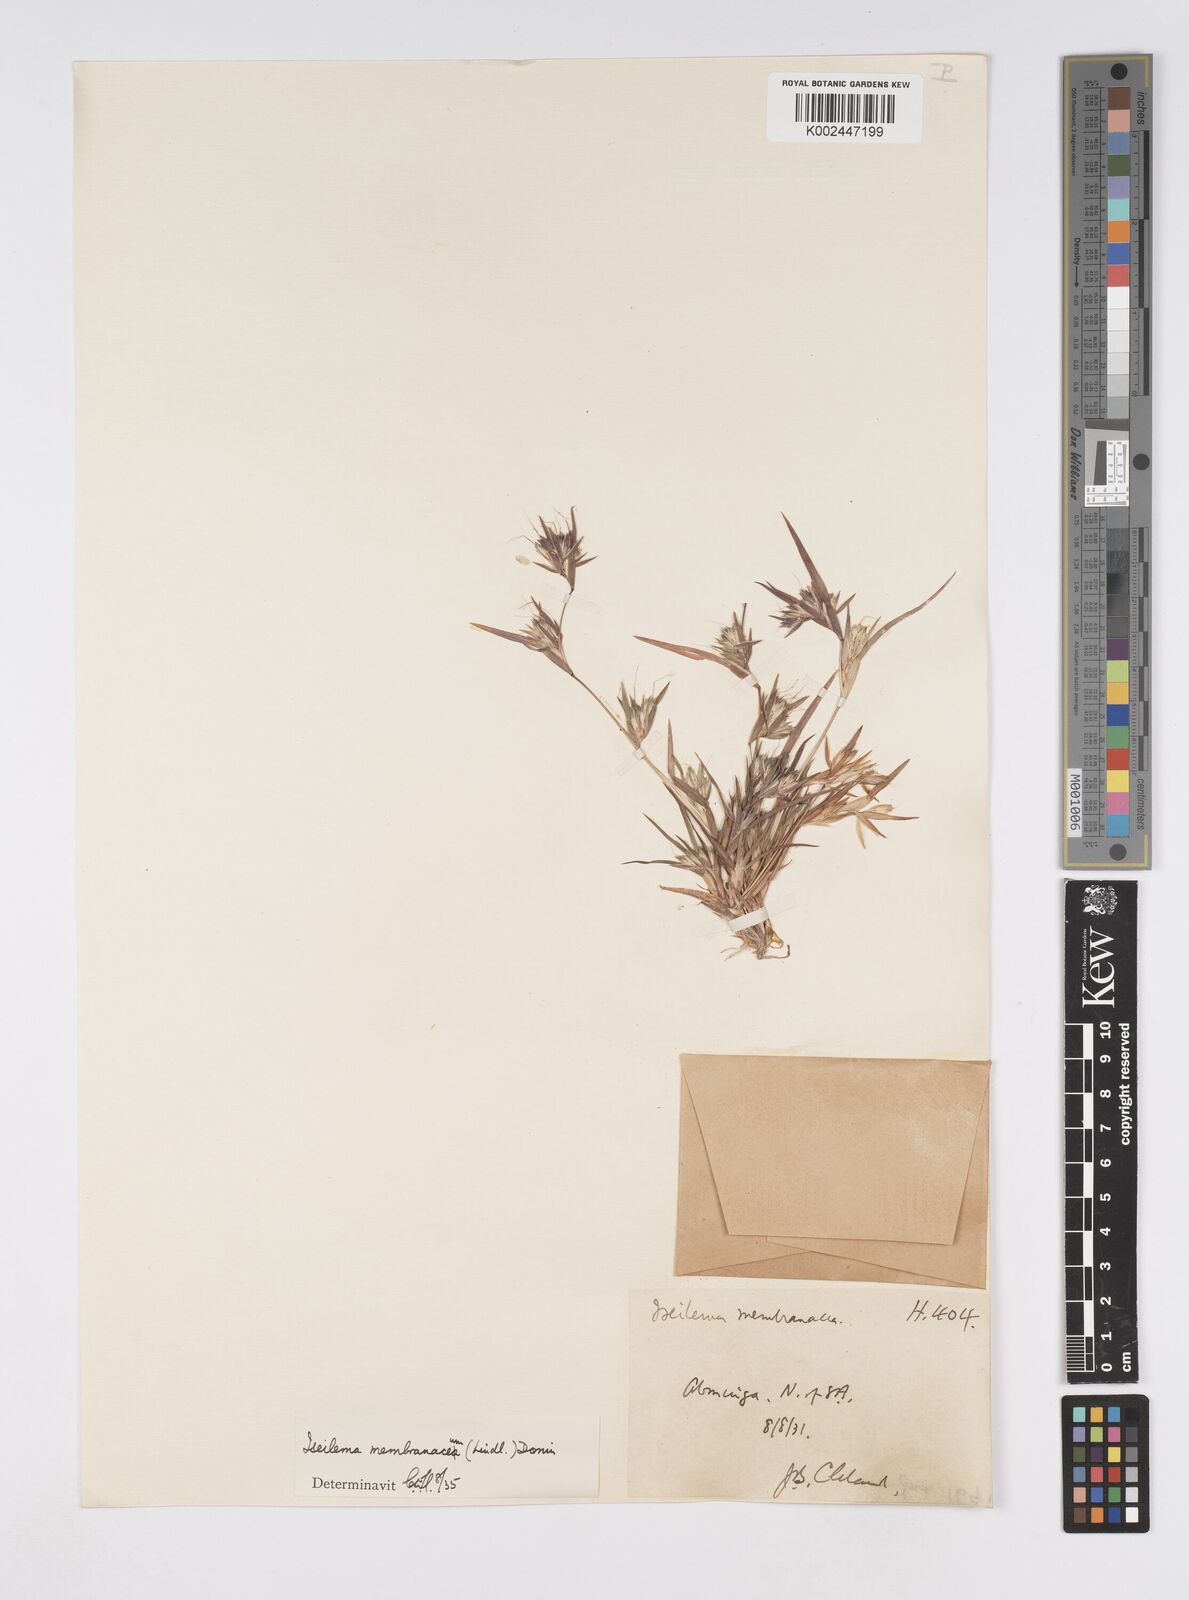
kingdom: Plantae
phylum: Tracheophyta
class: Liliopsida
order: Poales
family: Poaceae
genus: Iseilema
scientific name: Iseilema membranaceum
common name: Small flinders grass
